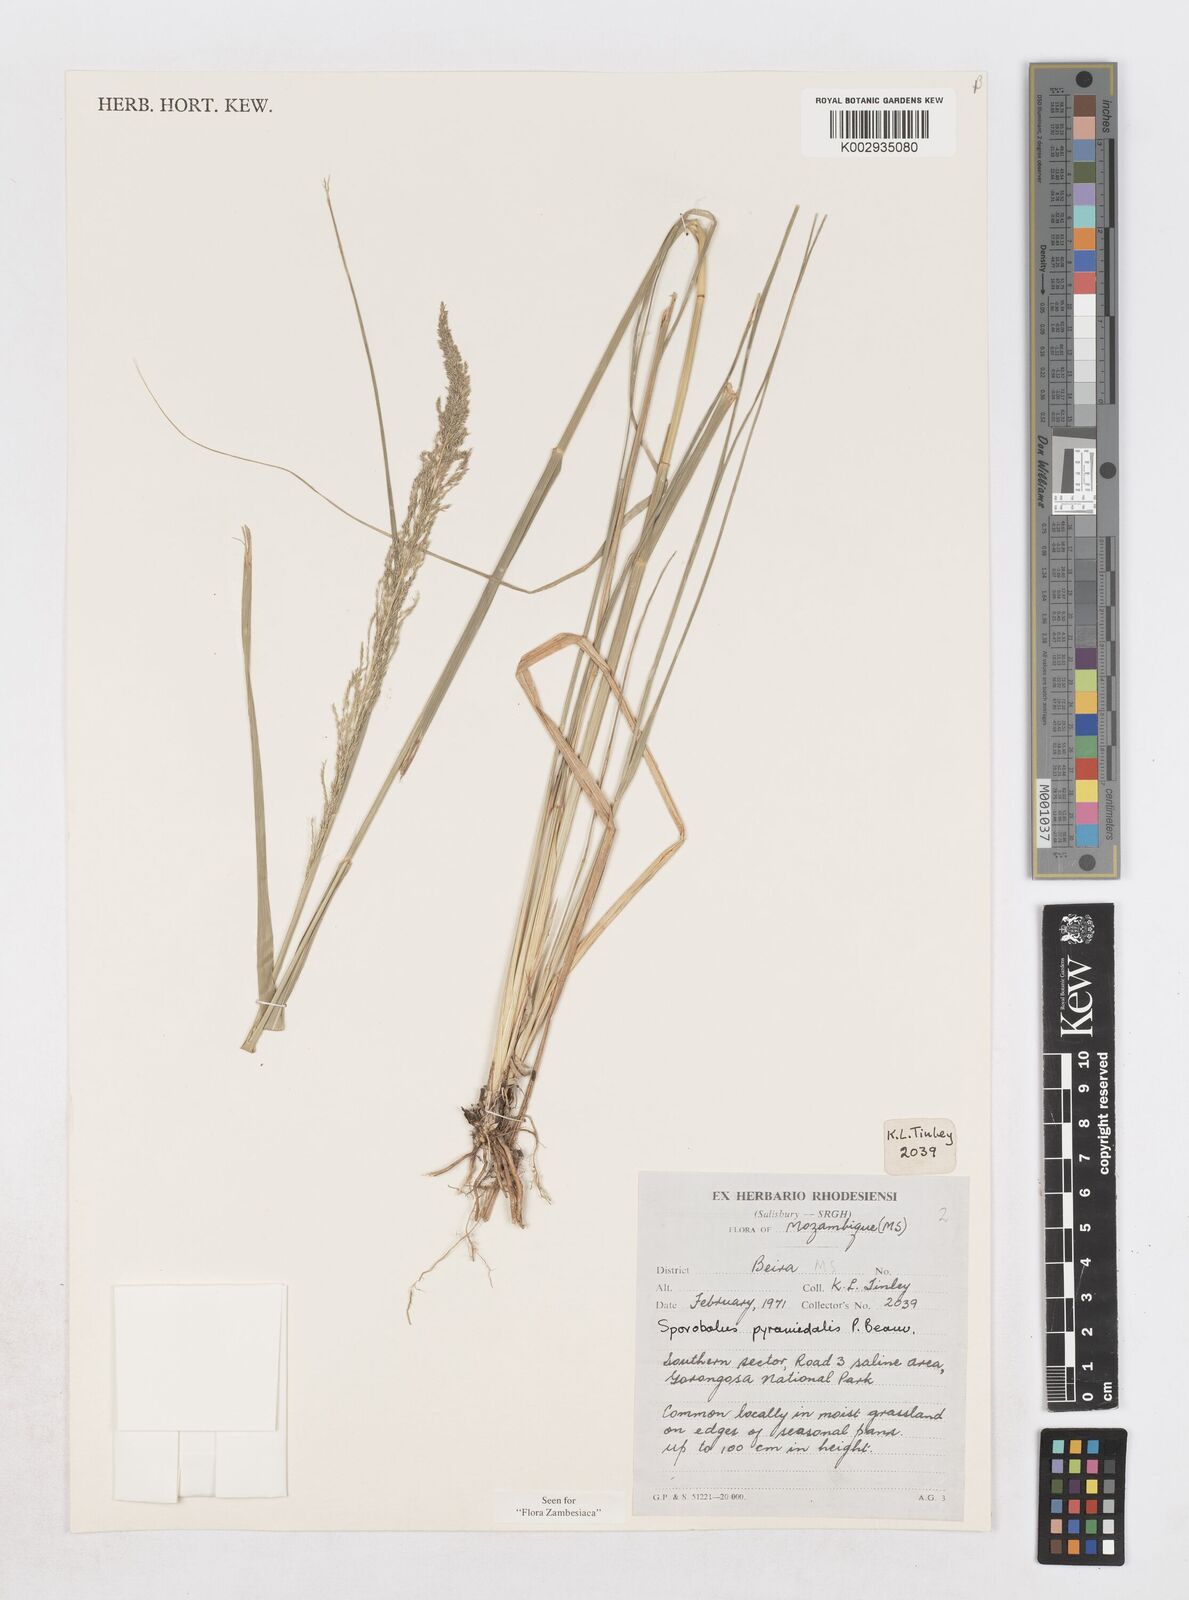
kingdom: Plantae
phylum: Tracheophyta
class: Liliopsida
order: Poales
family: Poaceae
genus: Sporobolus
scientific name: Sporobolus pyramidalis
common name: West indian dropseed
